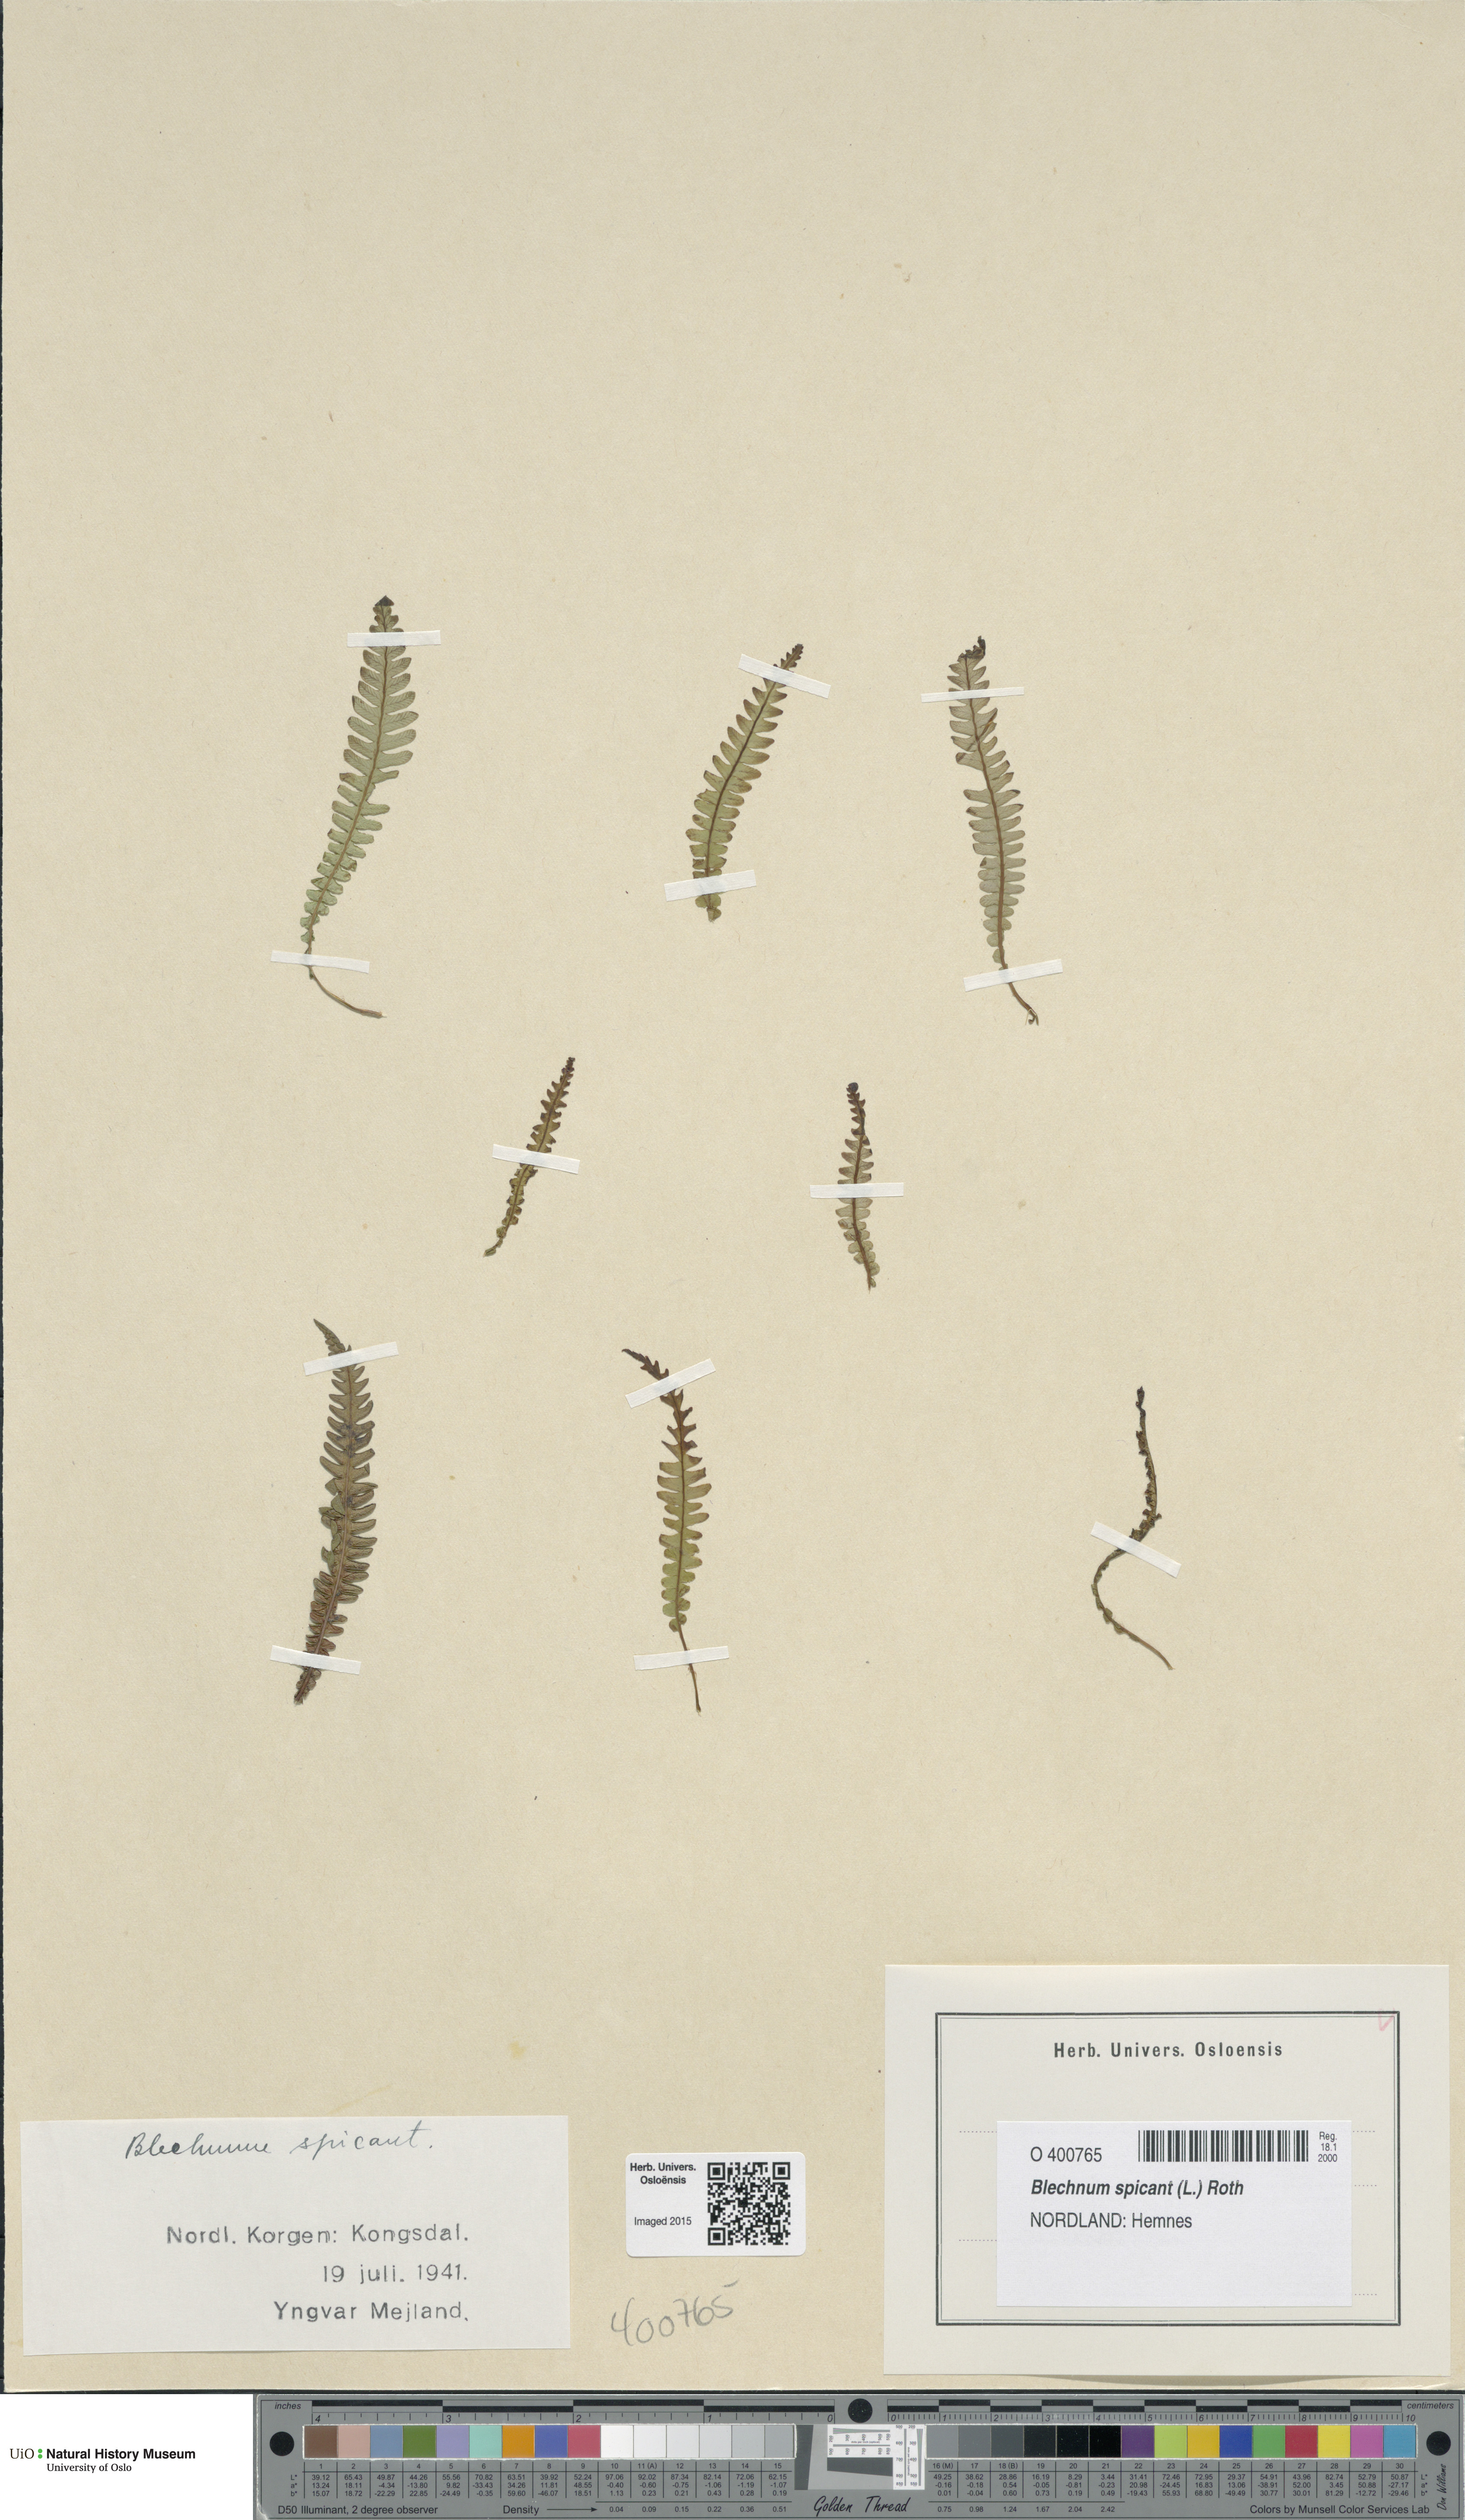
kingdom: Plantae
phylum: Tracheophyta
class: Polypodiopsida
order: Polypodiales
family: Blechnaceae
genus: Struthiopteris
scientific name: Struthiopteris spicant
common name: Deer fern
